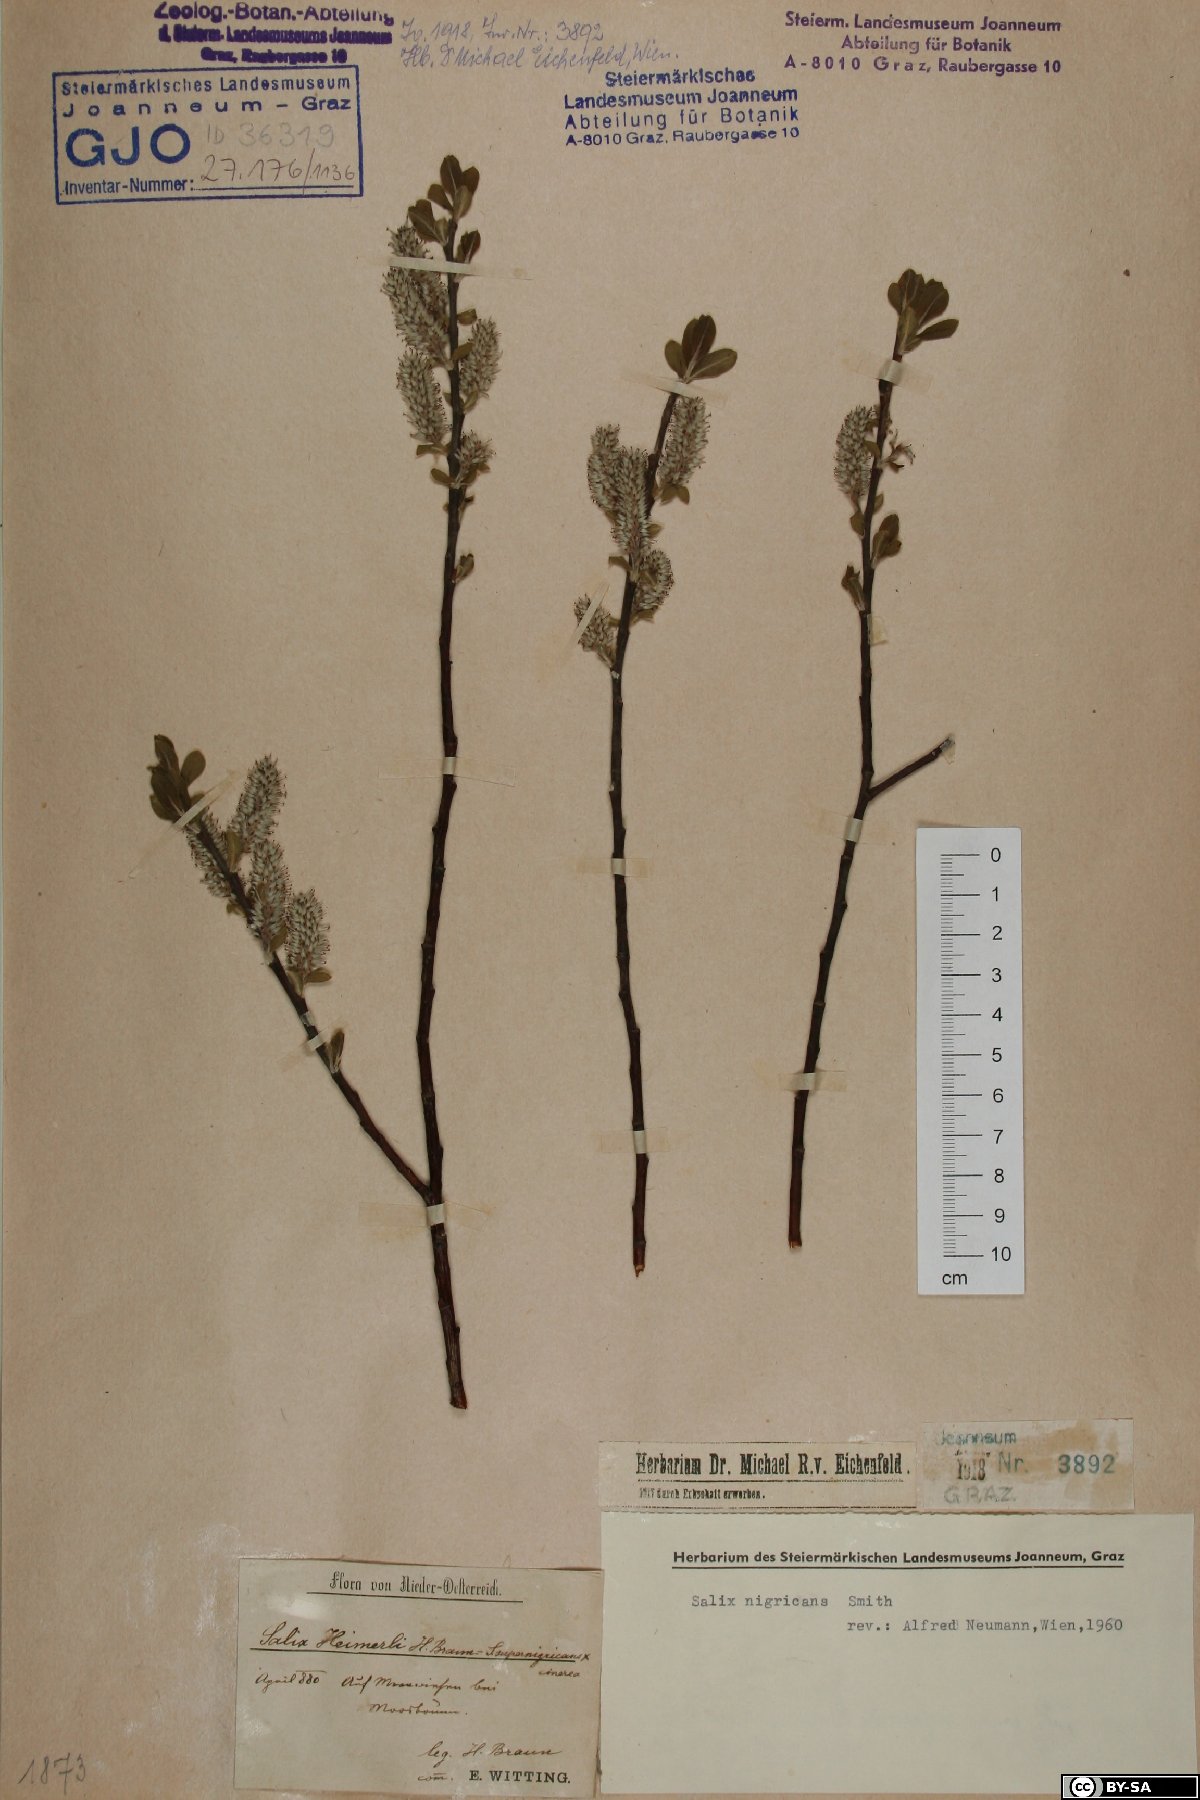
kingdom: Plantae
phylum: Tracheophyta
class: Magnoliopsida
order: Malpighiales
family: Salicaceae
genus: Salix
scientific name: Salix myrsinifolia
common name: Dark-leaved willow
